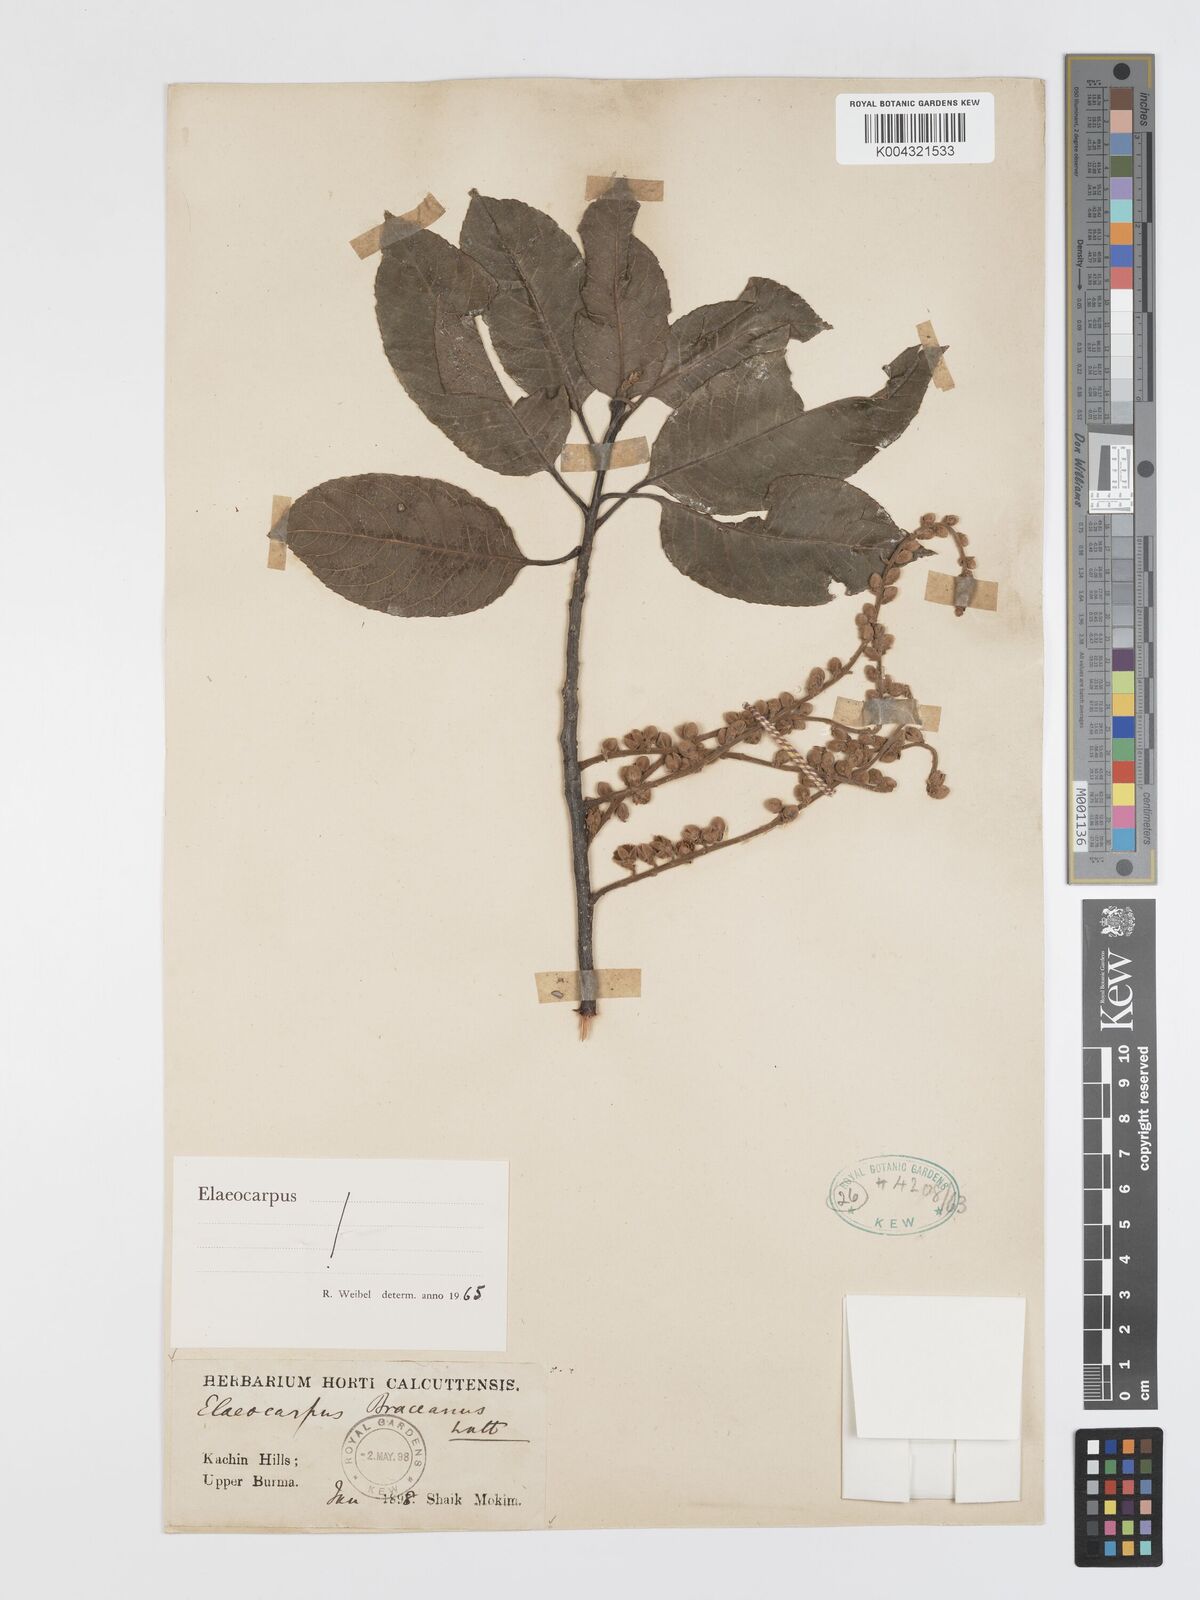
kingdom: Plantae
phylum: Tracheophyta
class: Magnoliopsida
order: Oxalidales
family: Elaeocarpaceae
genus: Elaeocarpus
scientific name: Elaeocarpus braceanus
